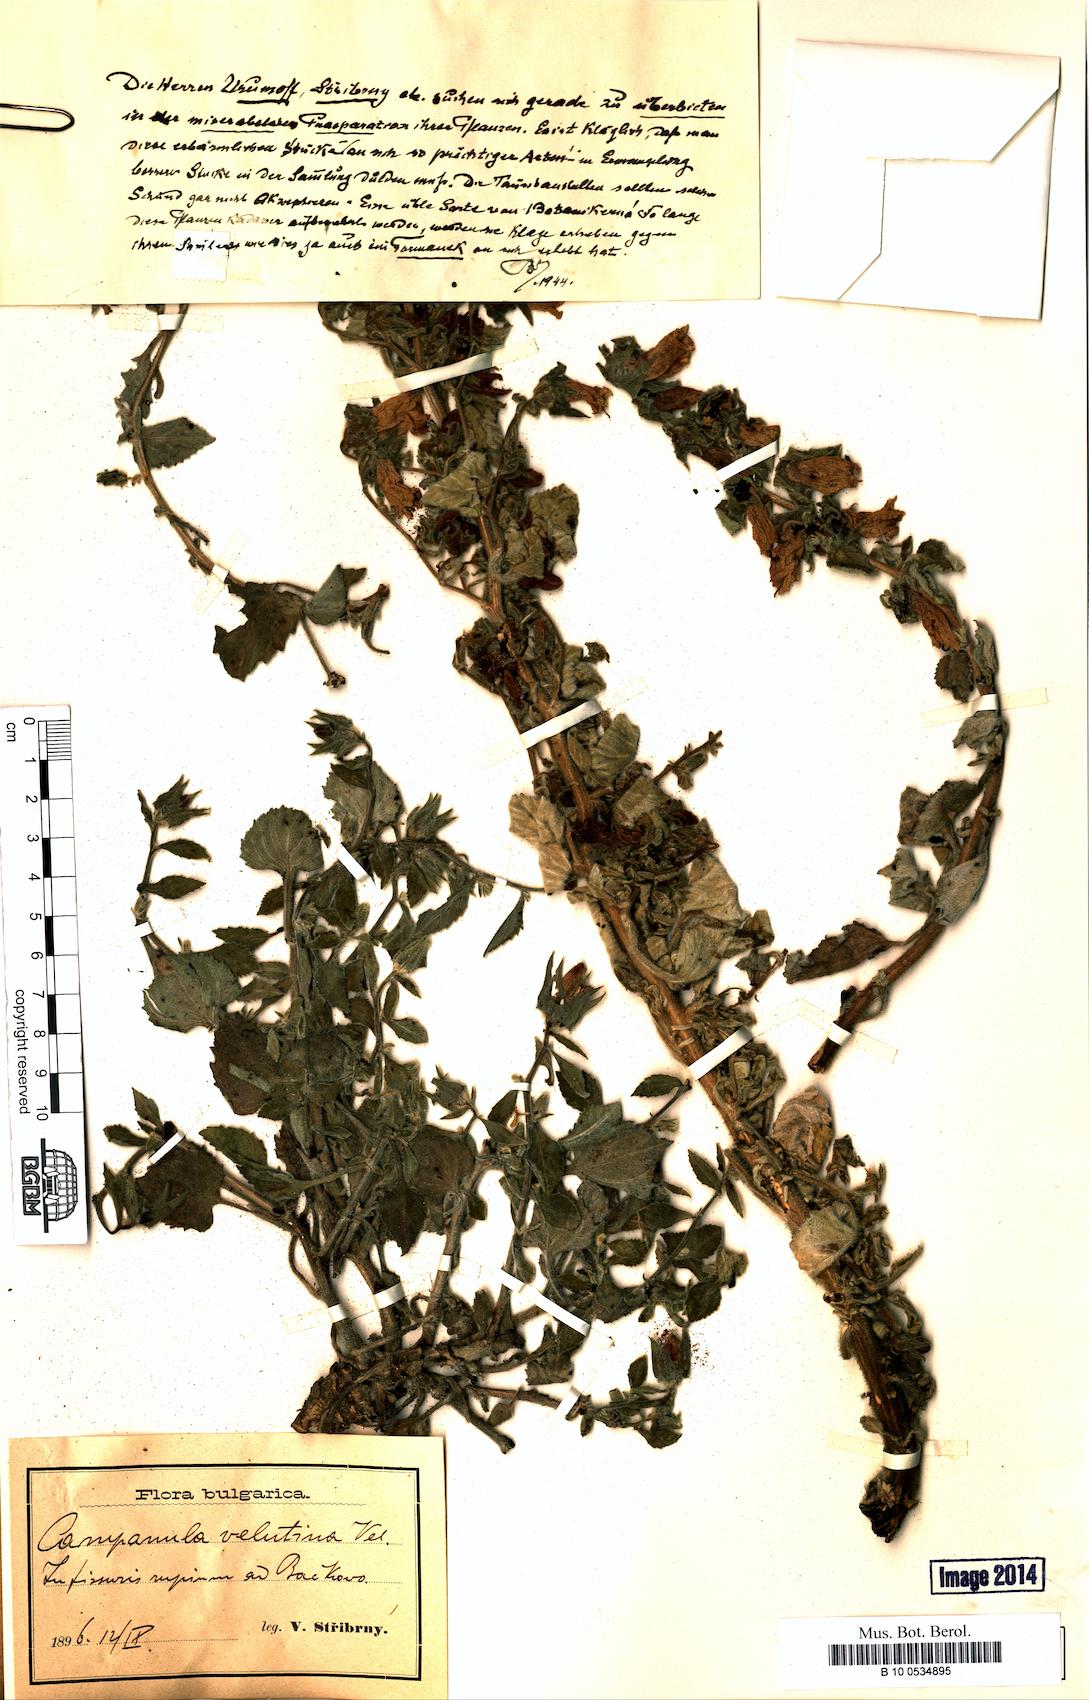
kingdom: Plantae
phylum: Tracheophyta
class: Magnoliopsida
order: Asterales
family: Campanulaceae
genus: Campanula
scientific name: Campanula lanata
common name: Woolly bellflower
